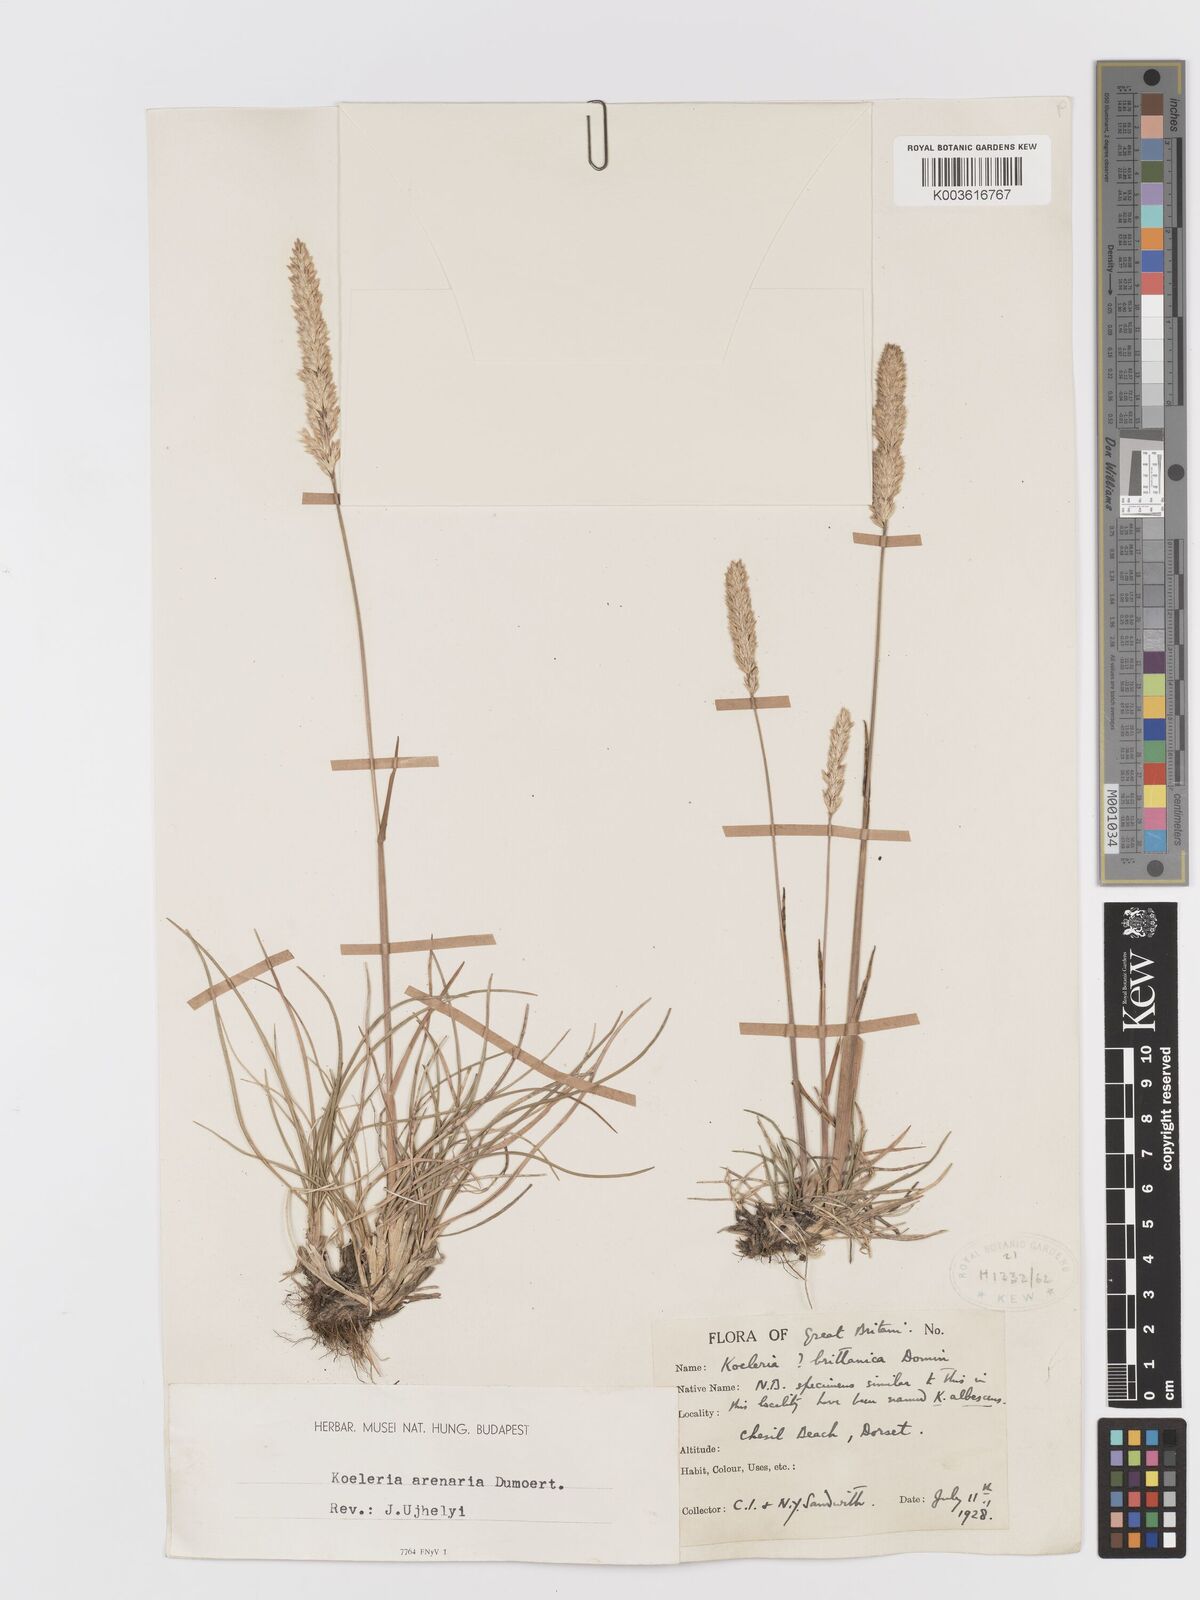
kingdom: Plantae
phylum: Tracheophyta
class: Liliopsida
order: Poales
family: Poaceae
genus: Koeleria
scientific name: Koeleria
